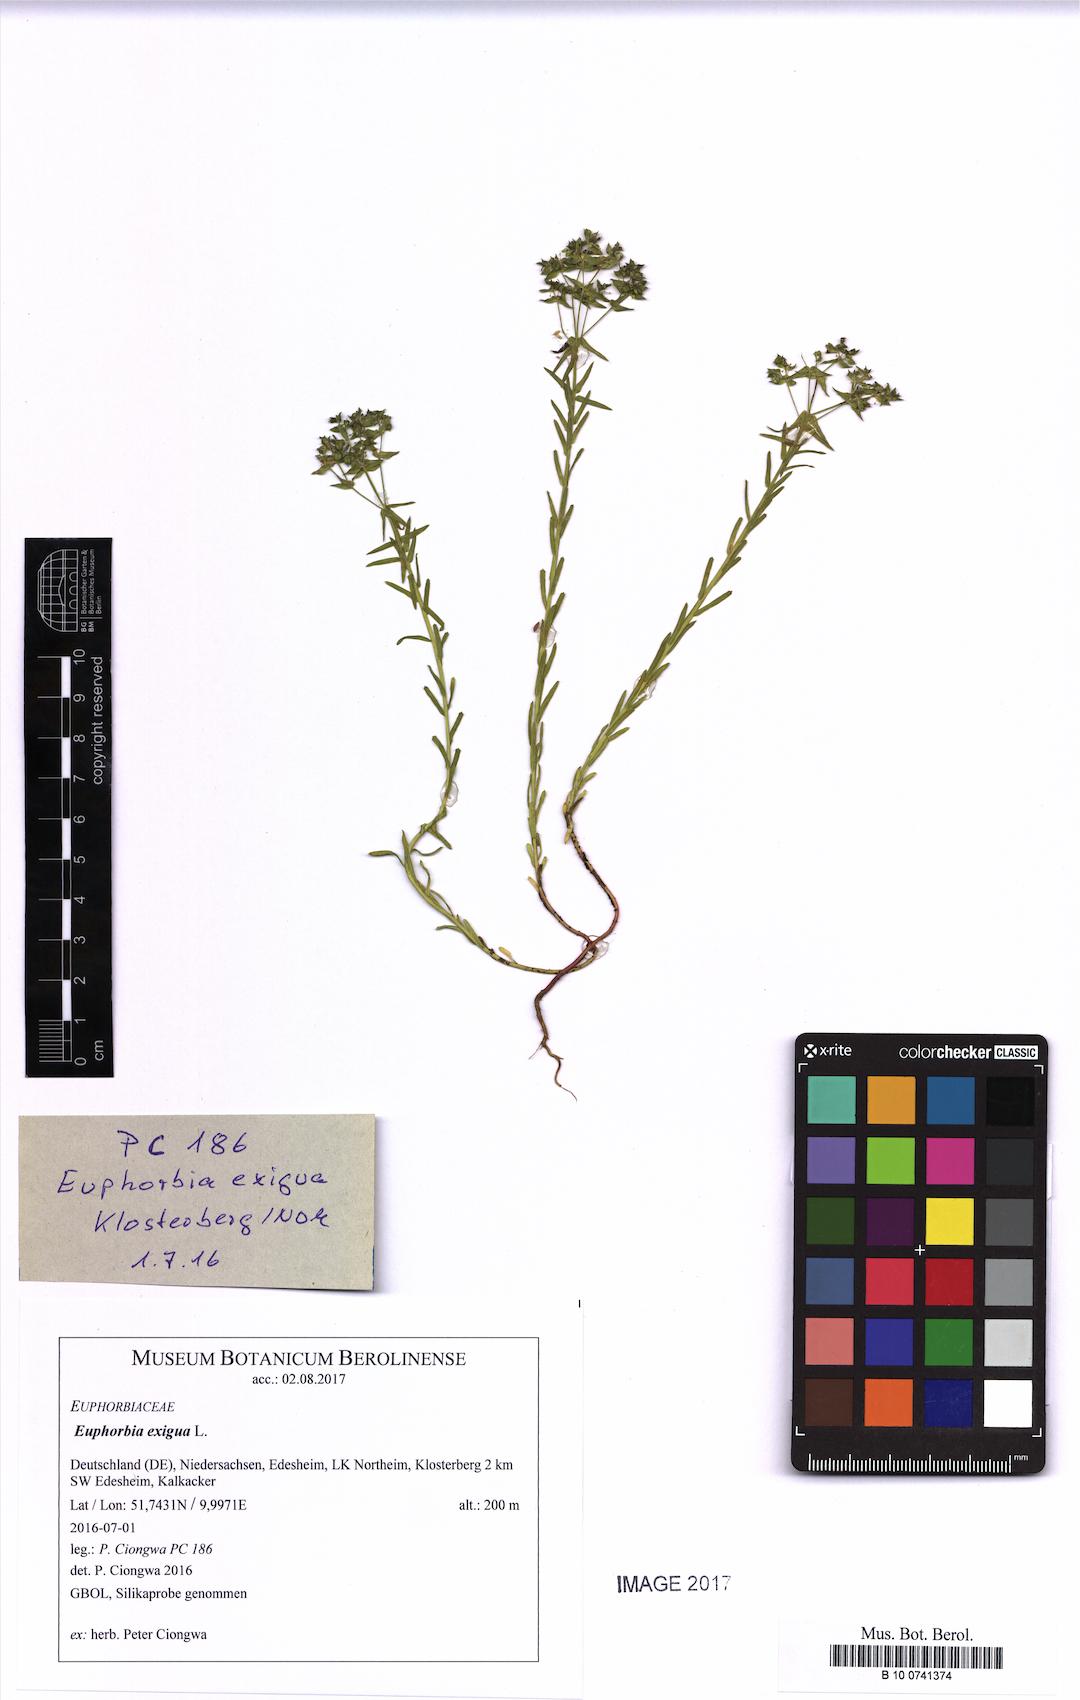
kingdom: Plantae
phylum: Tracheophyta
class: Magnoliopsida
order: Malpighiales
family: Euphorbiaceae
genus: Euphorbia
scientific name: Euphorbia exigua
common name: Dwarf spurge
